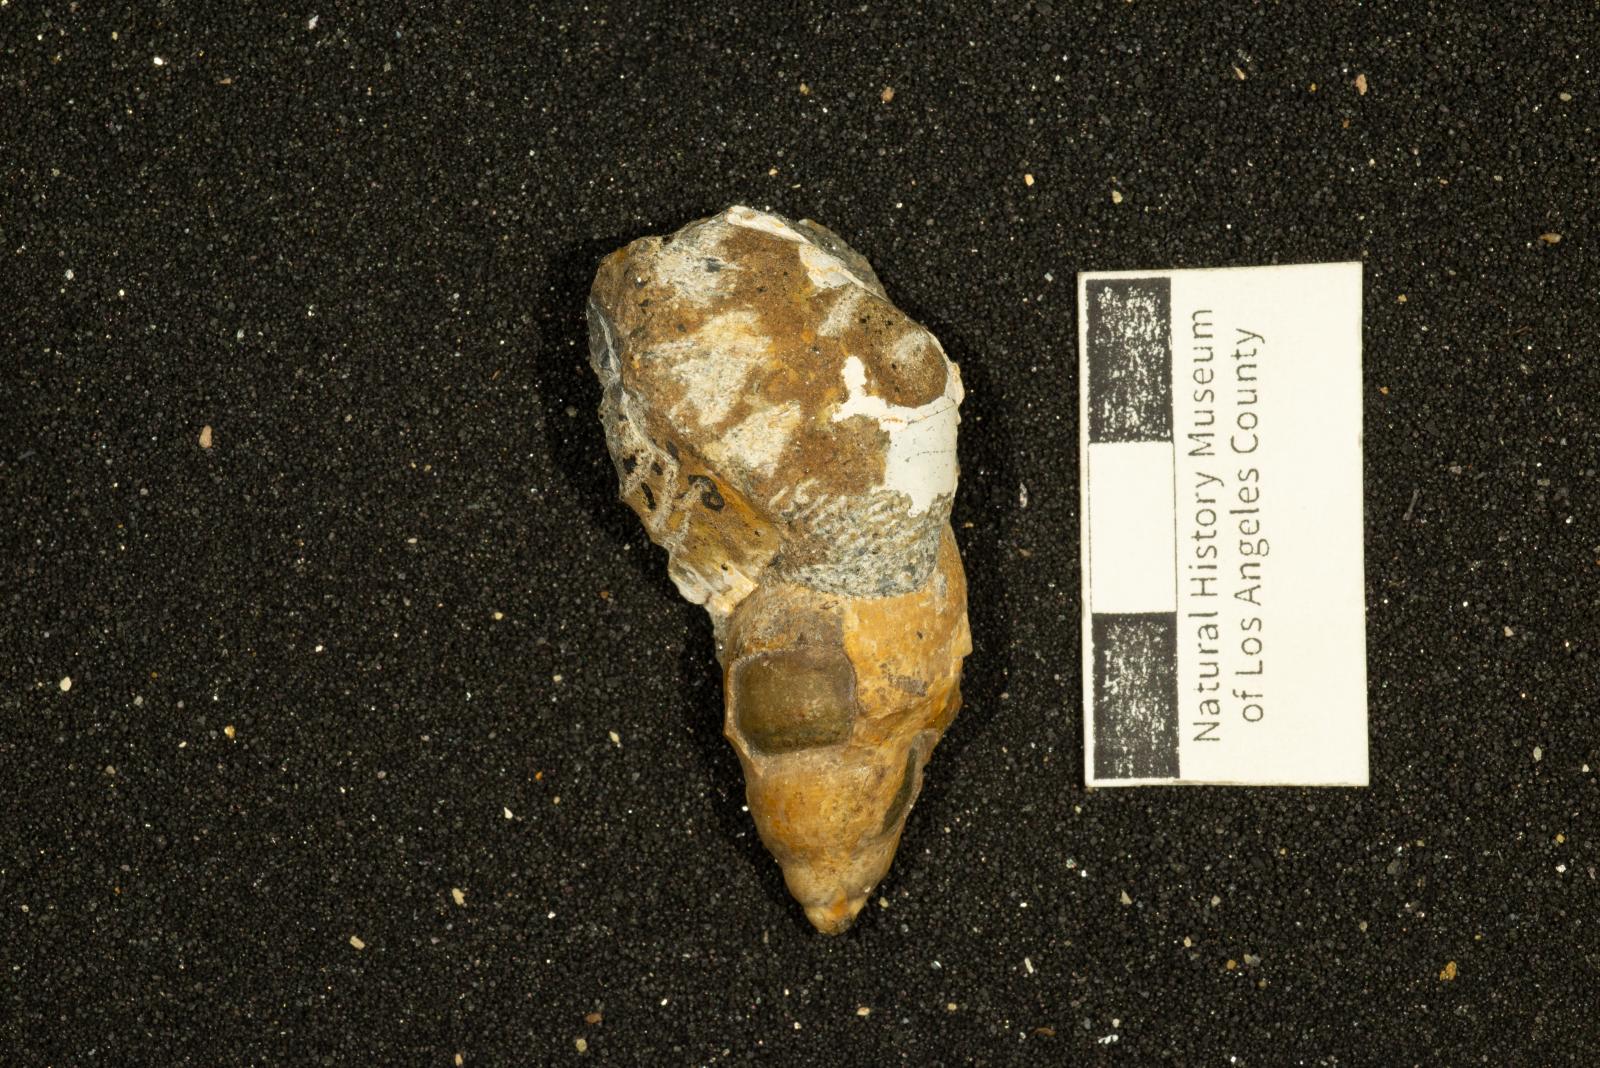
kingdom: Animalia
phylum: Mollusca
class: Gastropoda
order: Littorinimorpha
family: Aporrhaidae
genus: Lispodesthes
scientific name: Lispodesthes Pugnellus rotundus
